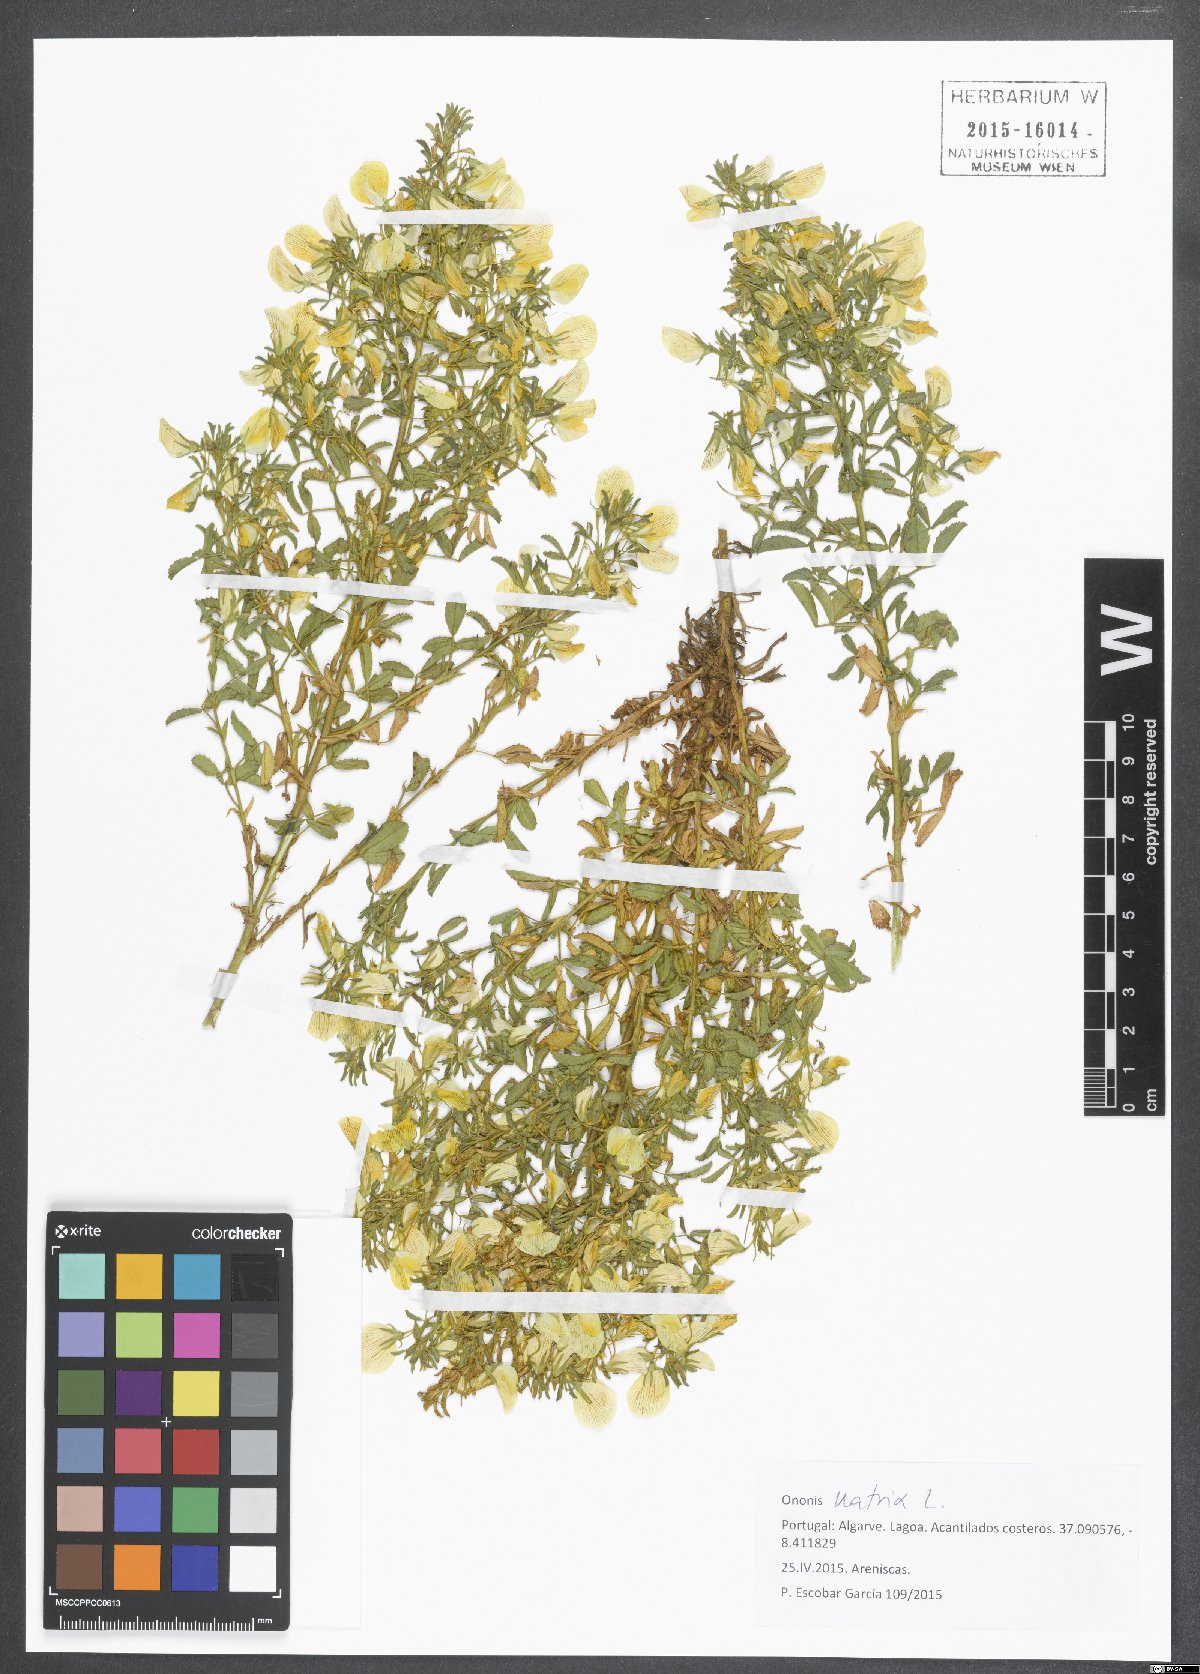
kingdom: Plantae
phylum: Tracheophyta
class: Magnoliopsida
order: Fabales
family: Fabaceae
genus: Ononis
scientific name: Ononis natrix
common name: Yellow restharrow
